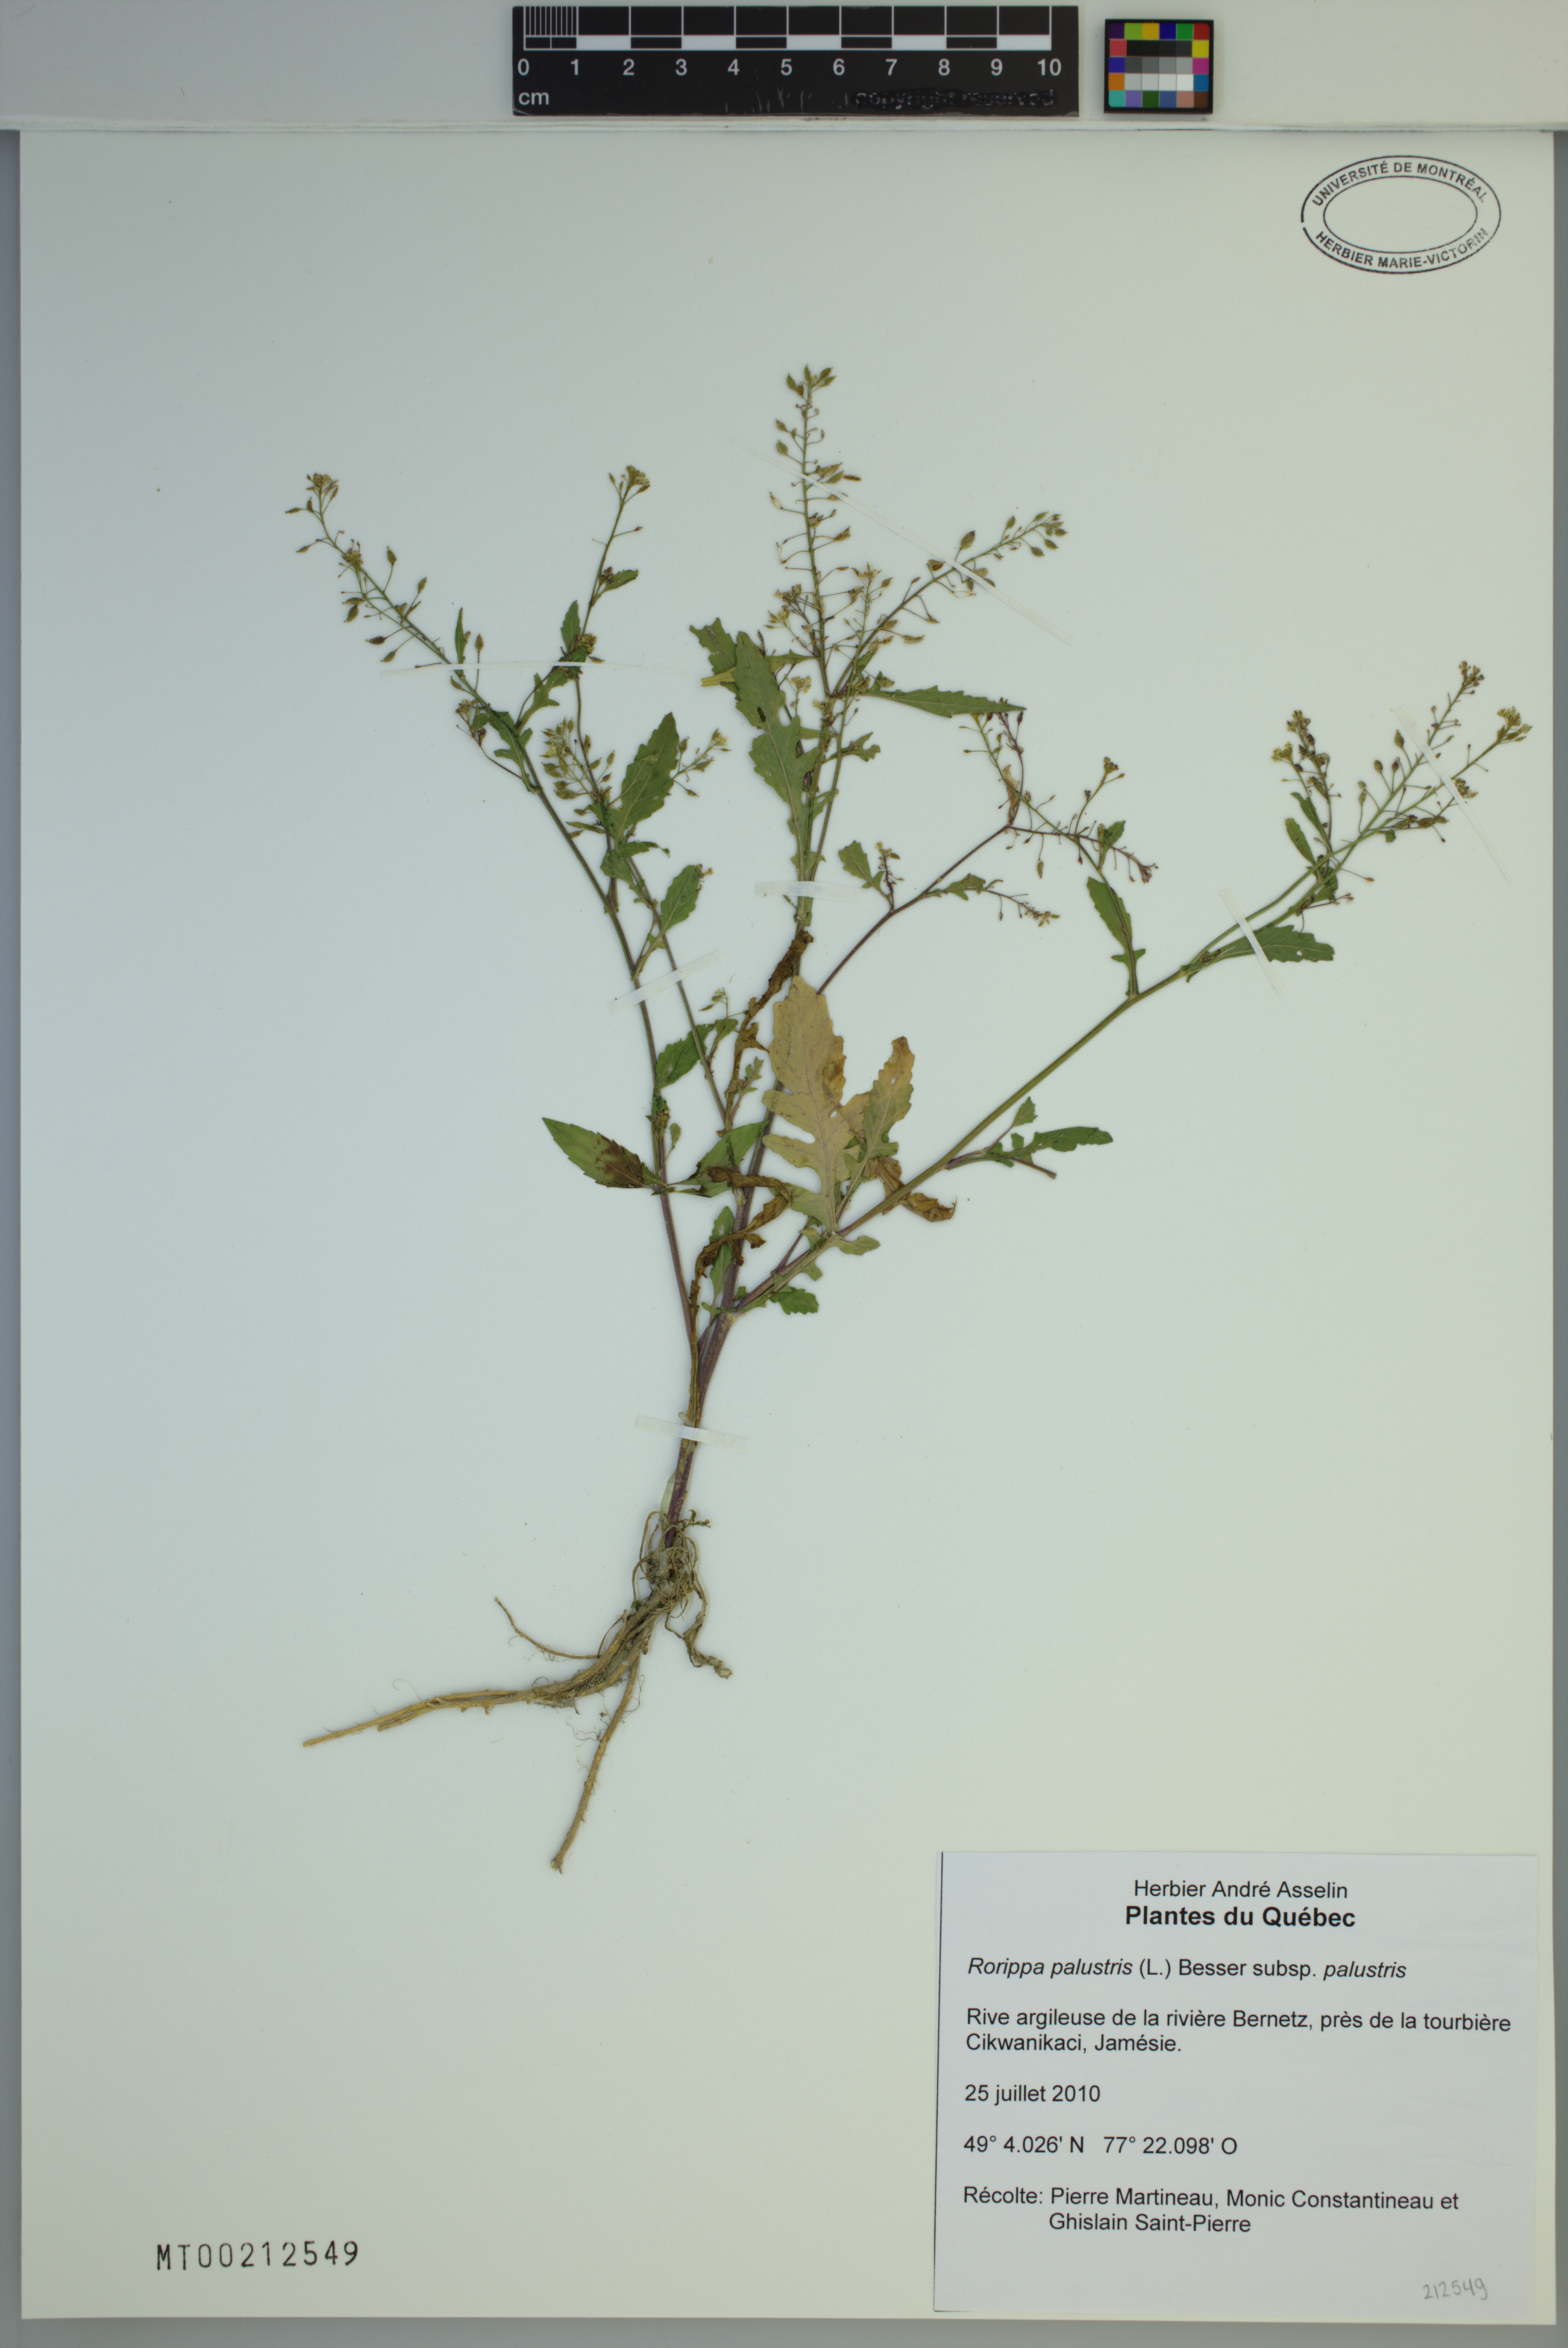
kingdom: Plantae
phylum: Tracheophyta
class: Magnoliopsida
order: Brassicales
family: Brassicaceae
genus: Rorippa
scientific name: Rorippa palustris
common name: Marsh yellow-cress
